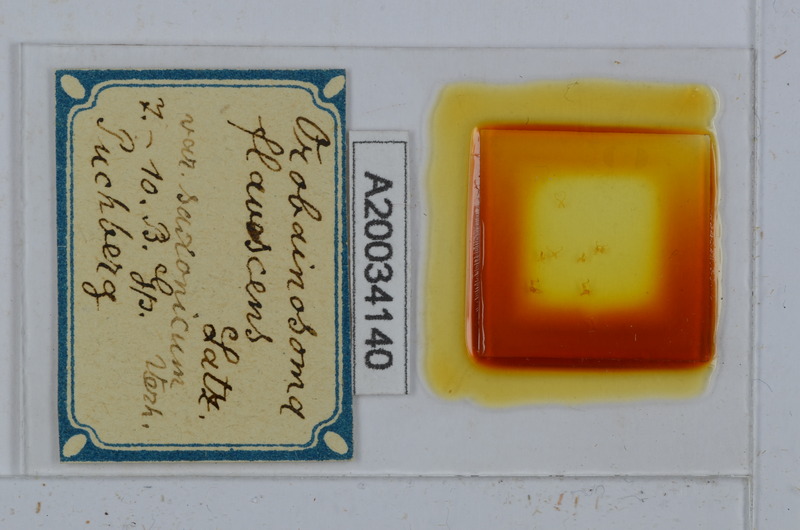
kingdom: Animalia
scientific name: Animalia
